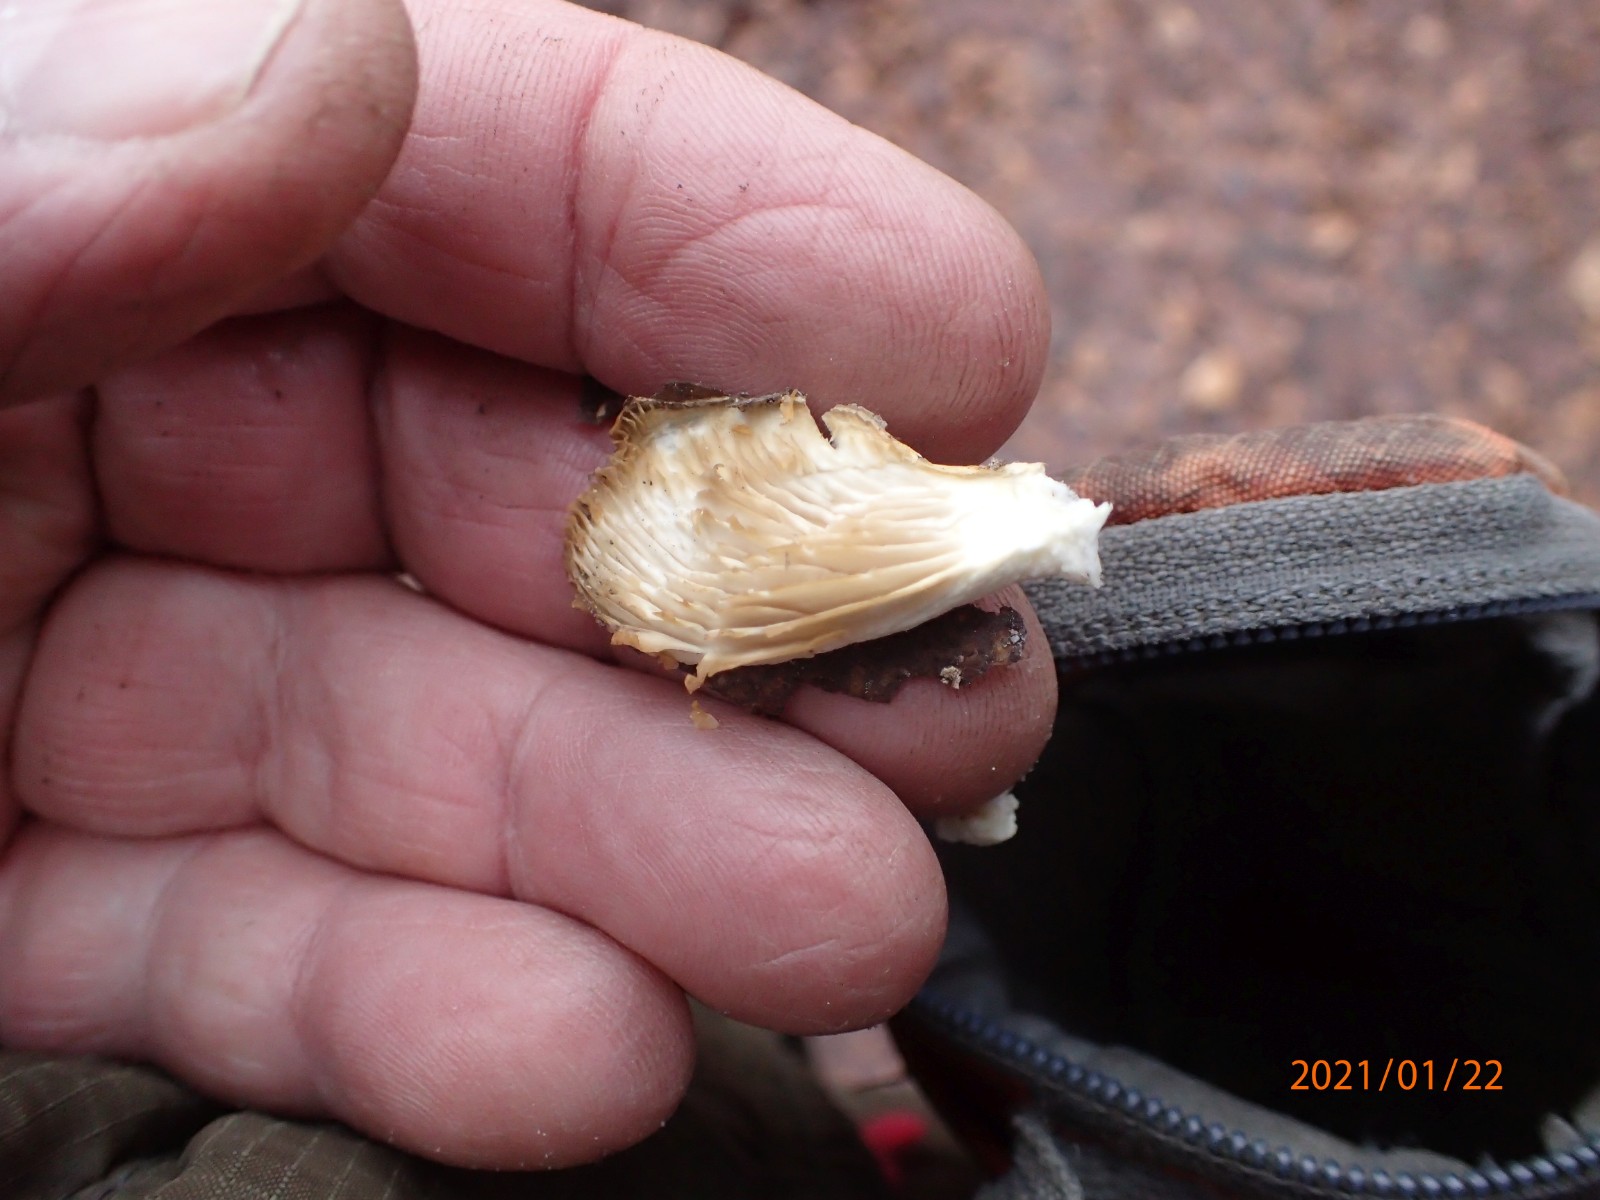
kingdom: Fungi
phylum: Basidiomycota
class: Agaricomycetes
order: Agaricales
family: Pleurotaceae
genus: Pleurotus
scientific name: Pleurotus ostreatus
